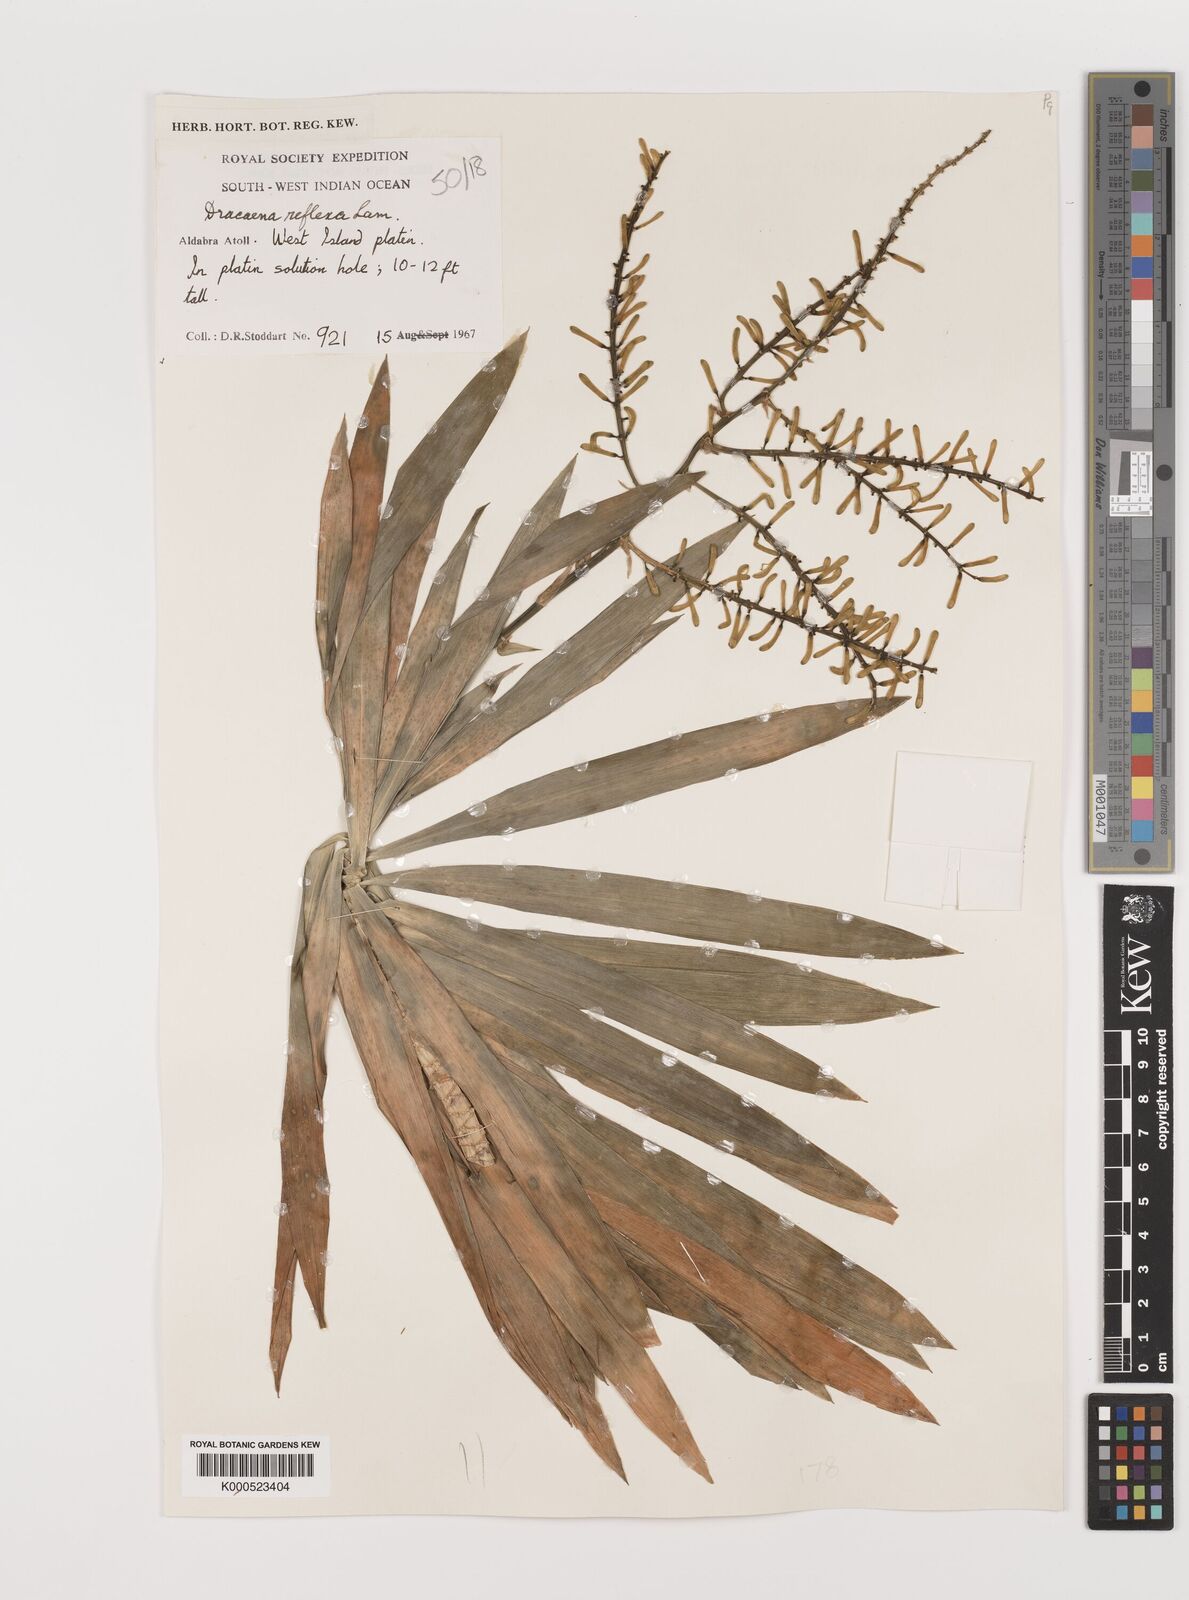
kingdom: Plantae
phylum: Tracheophyta
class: Liliopsida
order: Asparagales
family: Asparagaceae
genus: Dracaena
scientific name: Dracaena reflexa
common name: Song-of-india
